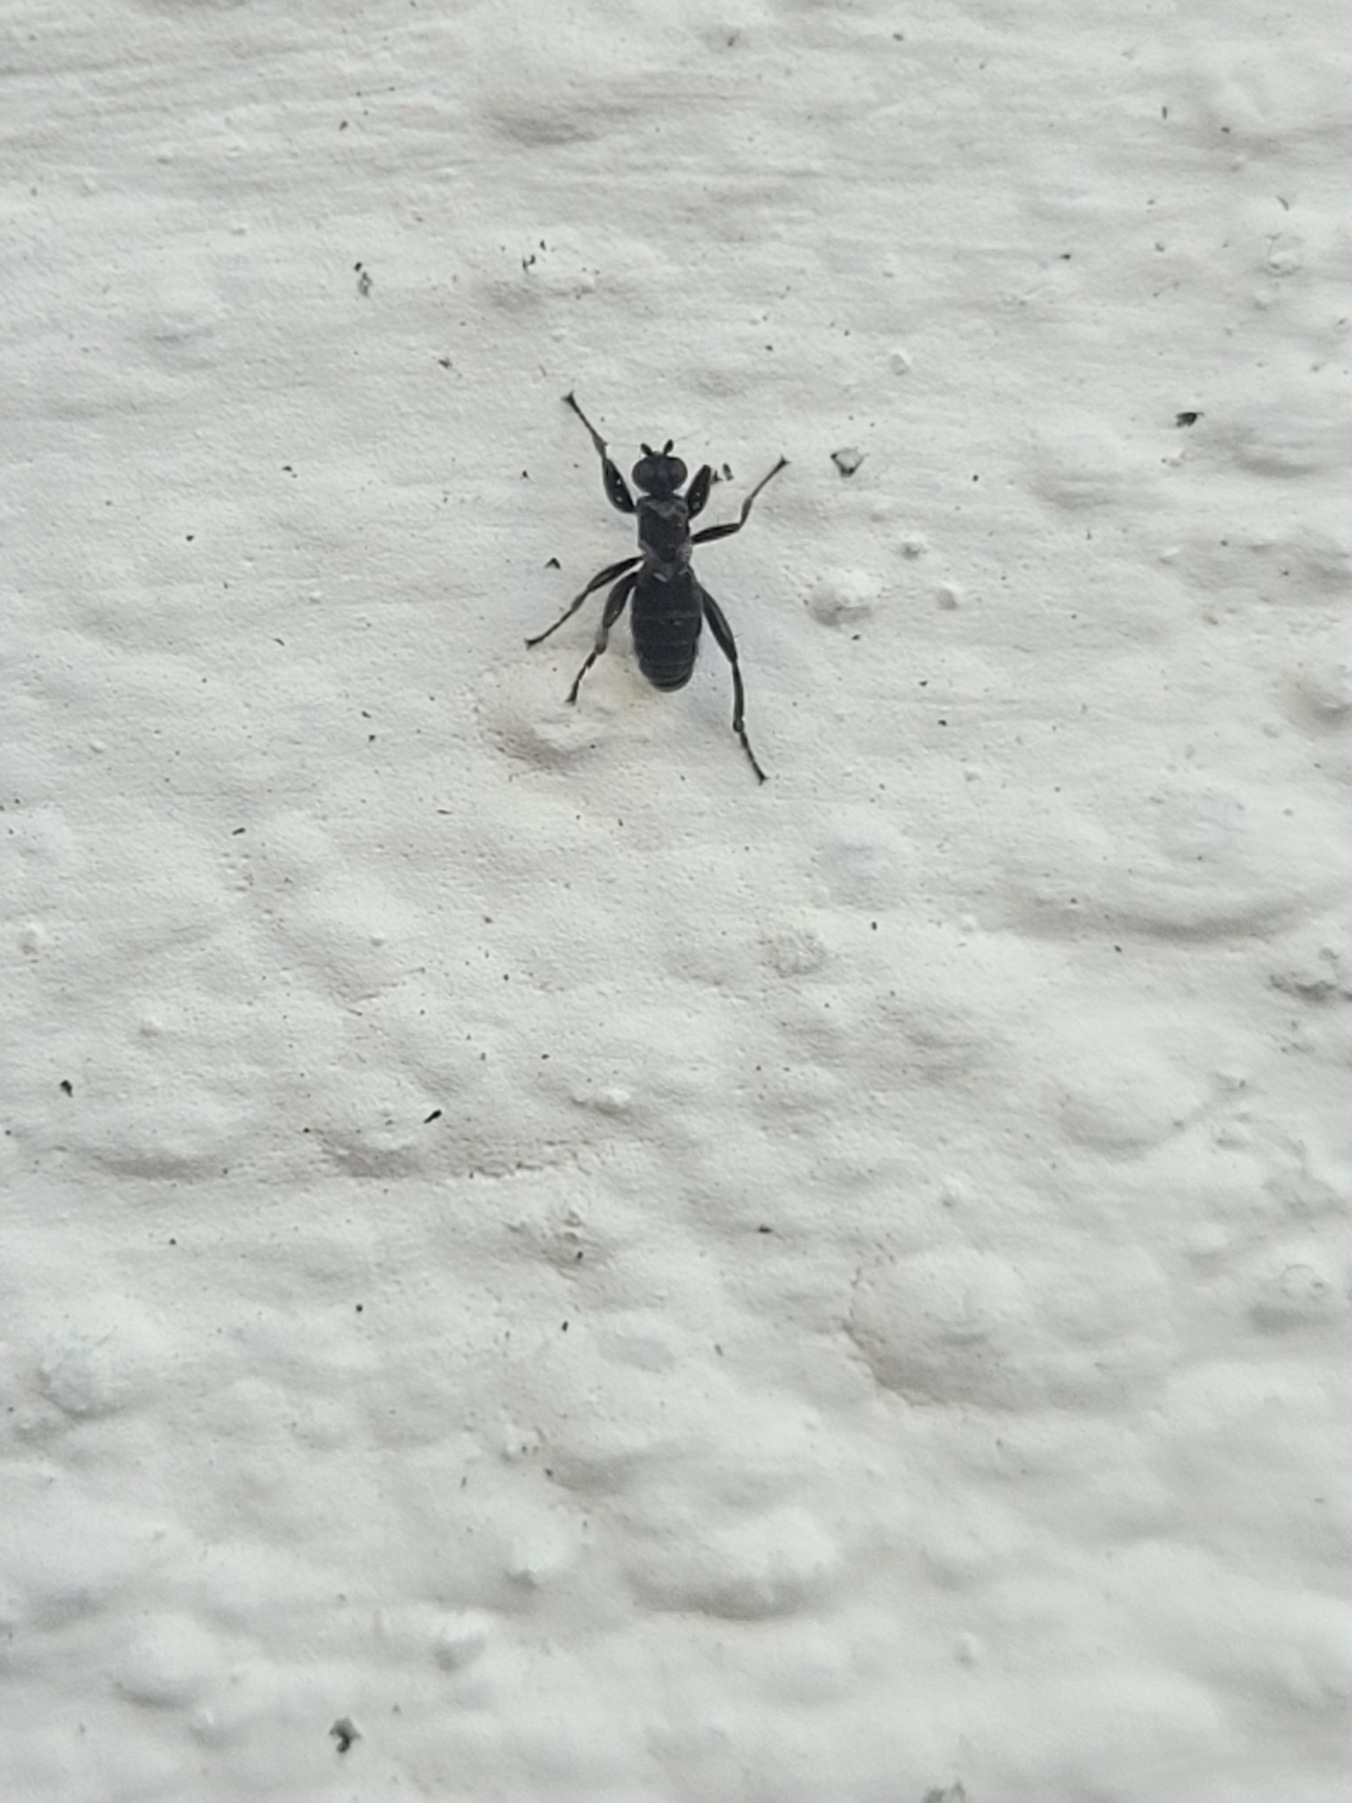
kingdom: Animalia
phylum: Arthropoda
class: Insecta
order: Diptera
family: Sphaeroceridae
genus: Crumomyia
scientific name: Crumomyia pedestris
